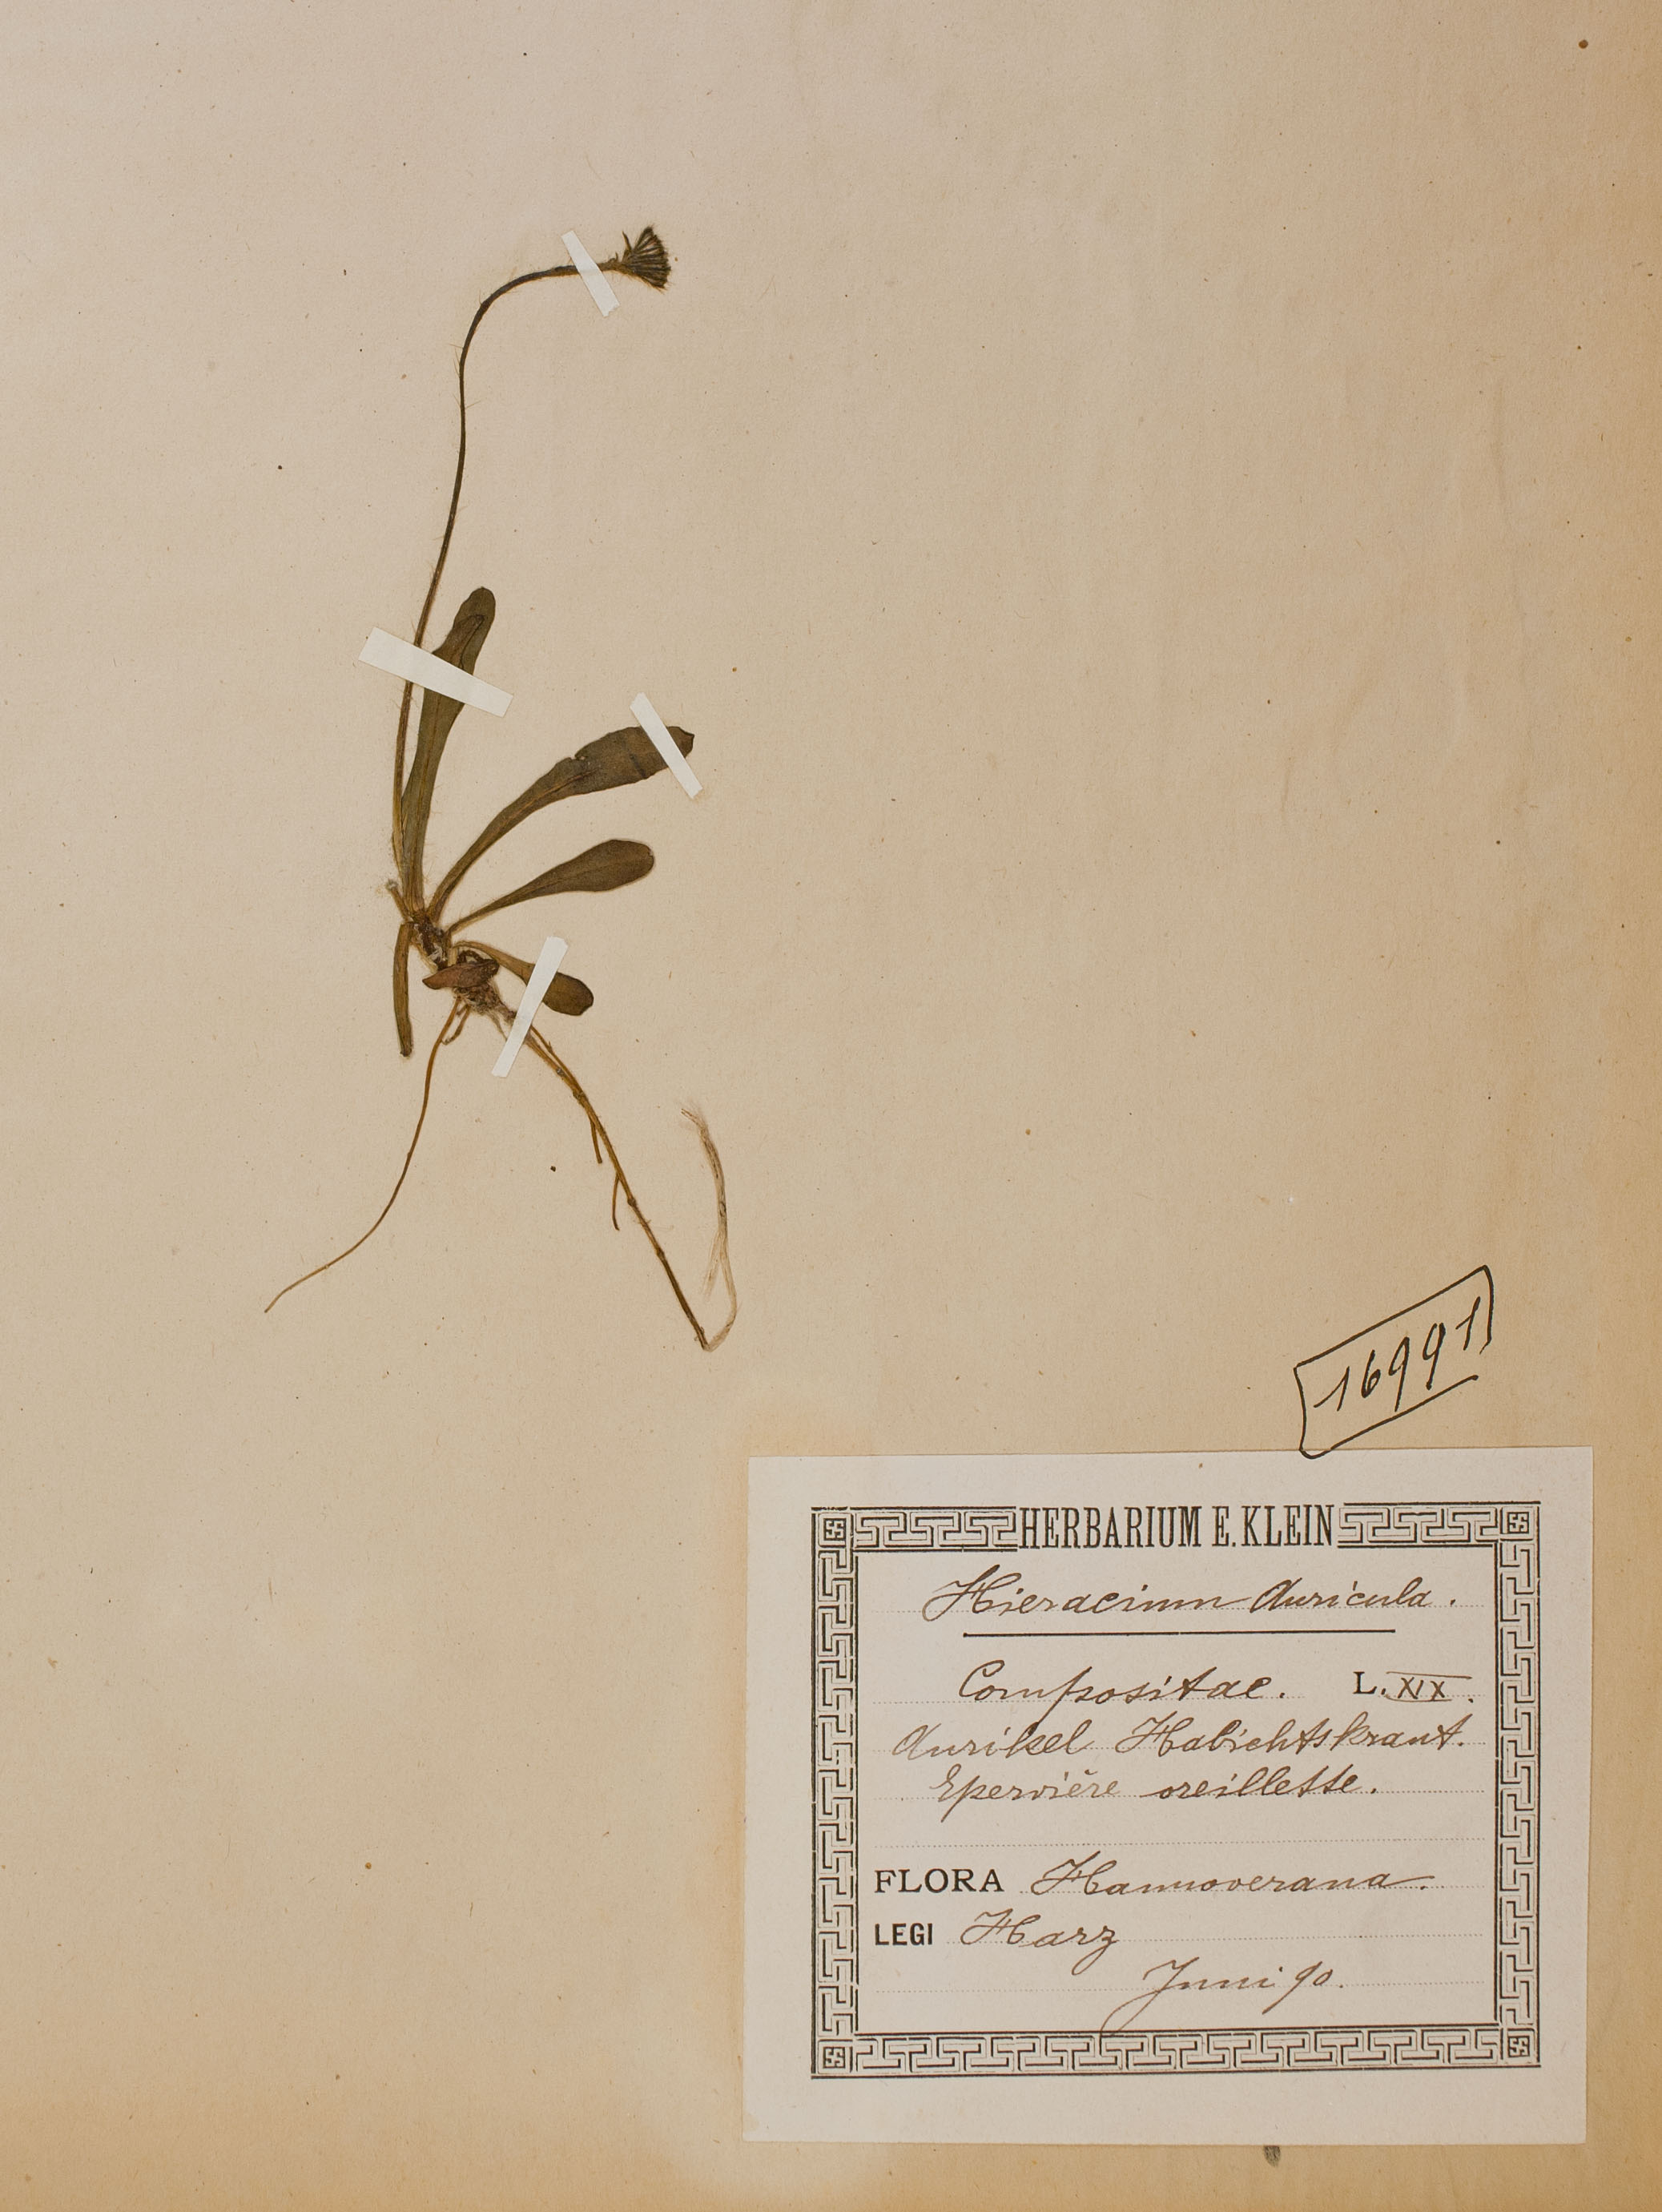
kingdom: Plantae
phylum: Tracheophyta
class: Magnoliopsida
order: Asterales
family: Asteraceae
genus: Pilosella
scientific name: Pilosella floribunda
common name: Glaucous hawkweed
